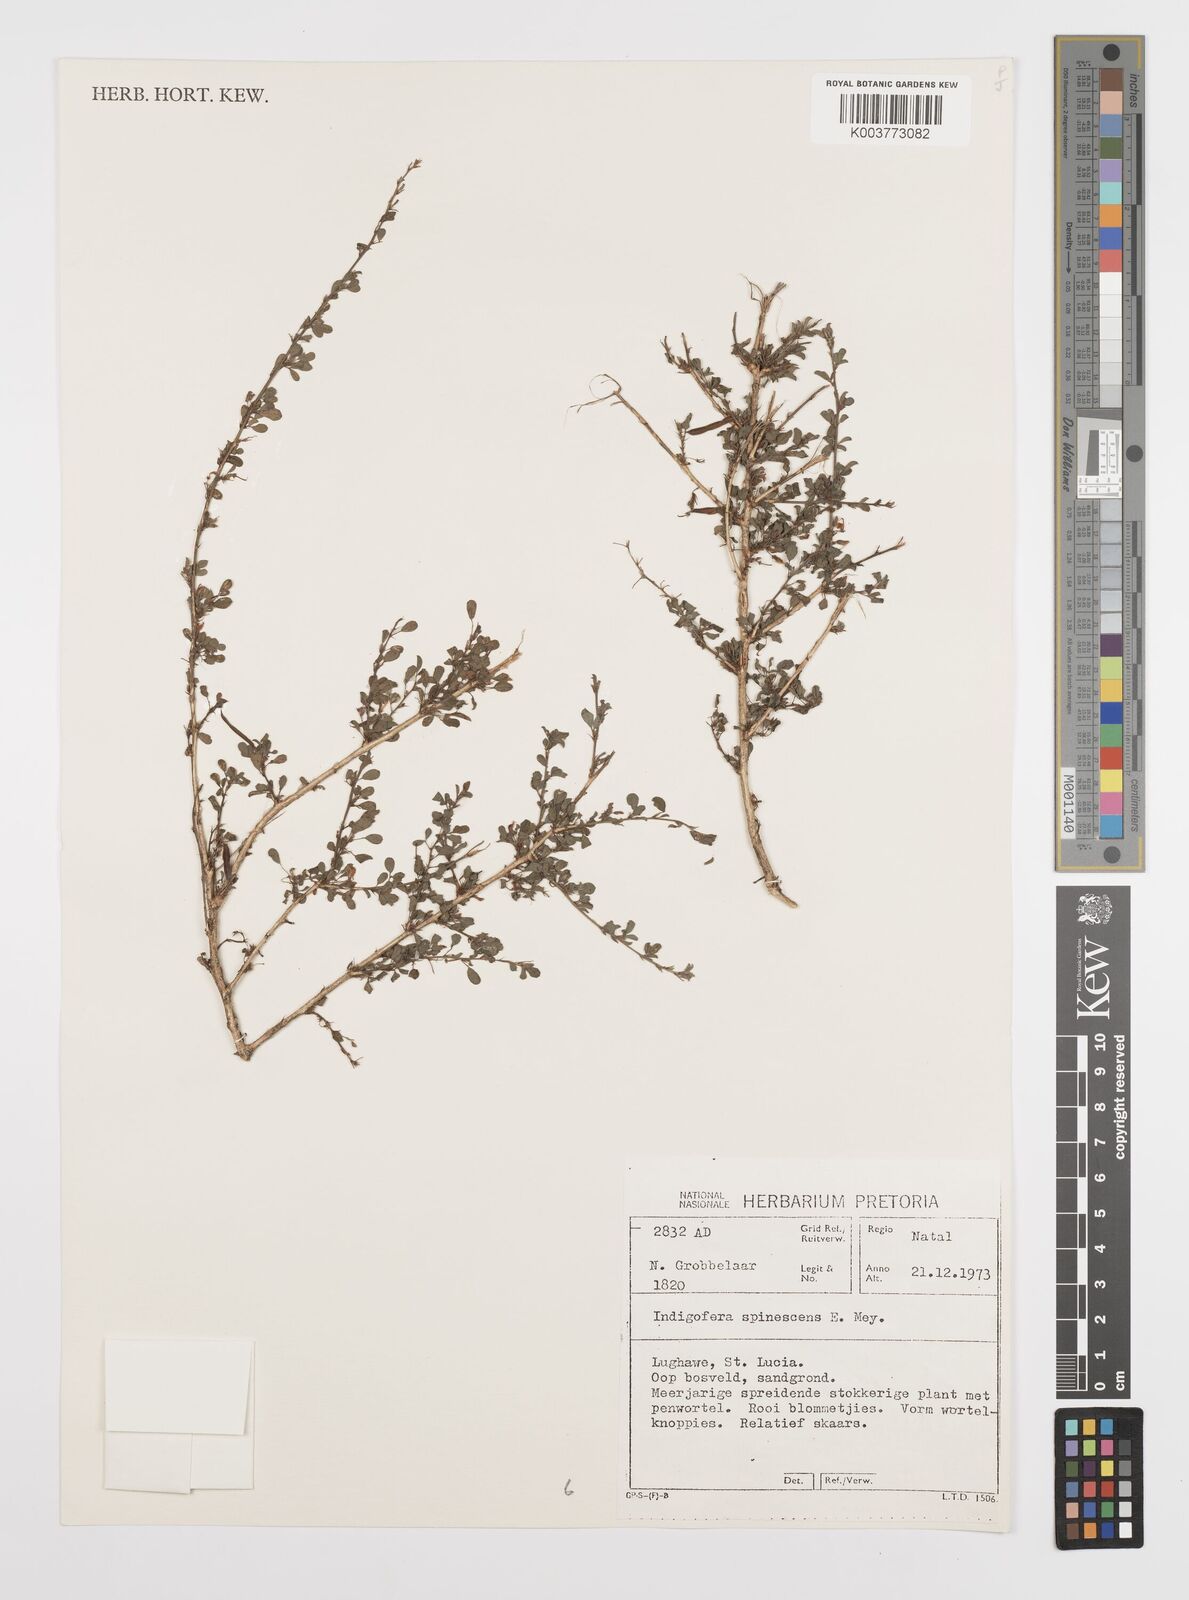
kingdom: Plantae
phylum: Tracheophyta
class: Magnoliopsida
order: Fabales
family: Fabaceae
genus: Indigofera
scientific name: Indigofera
